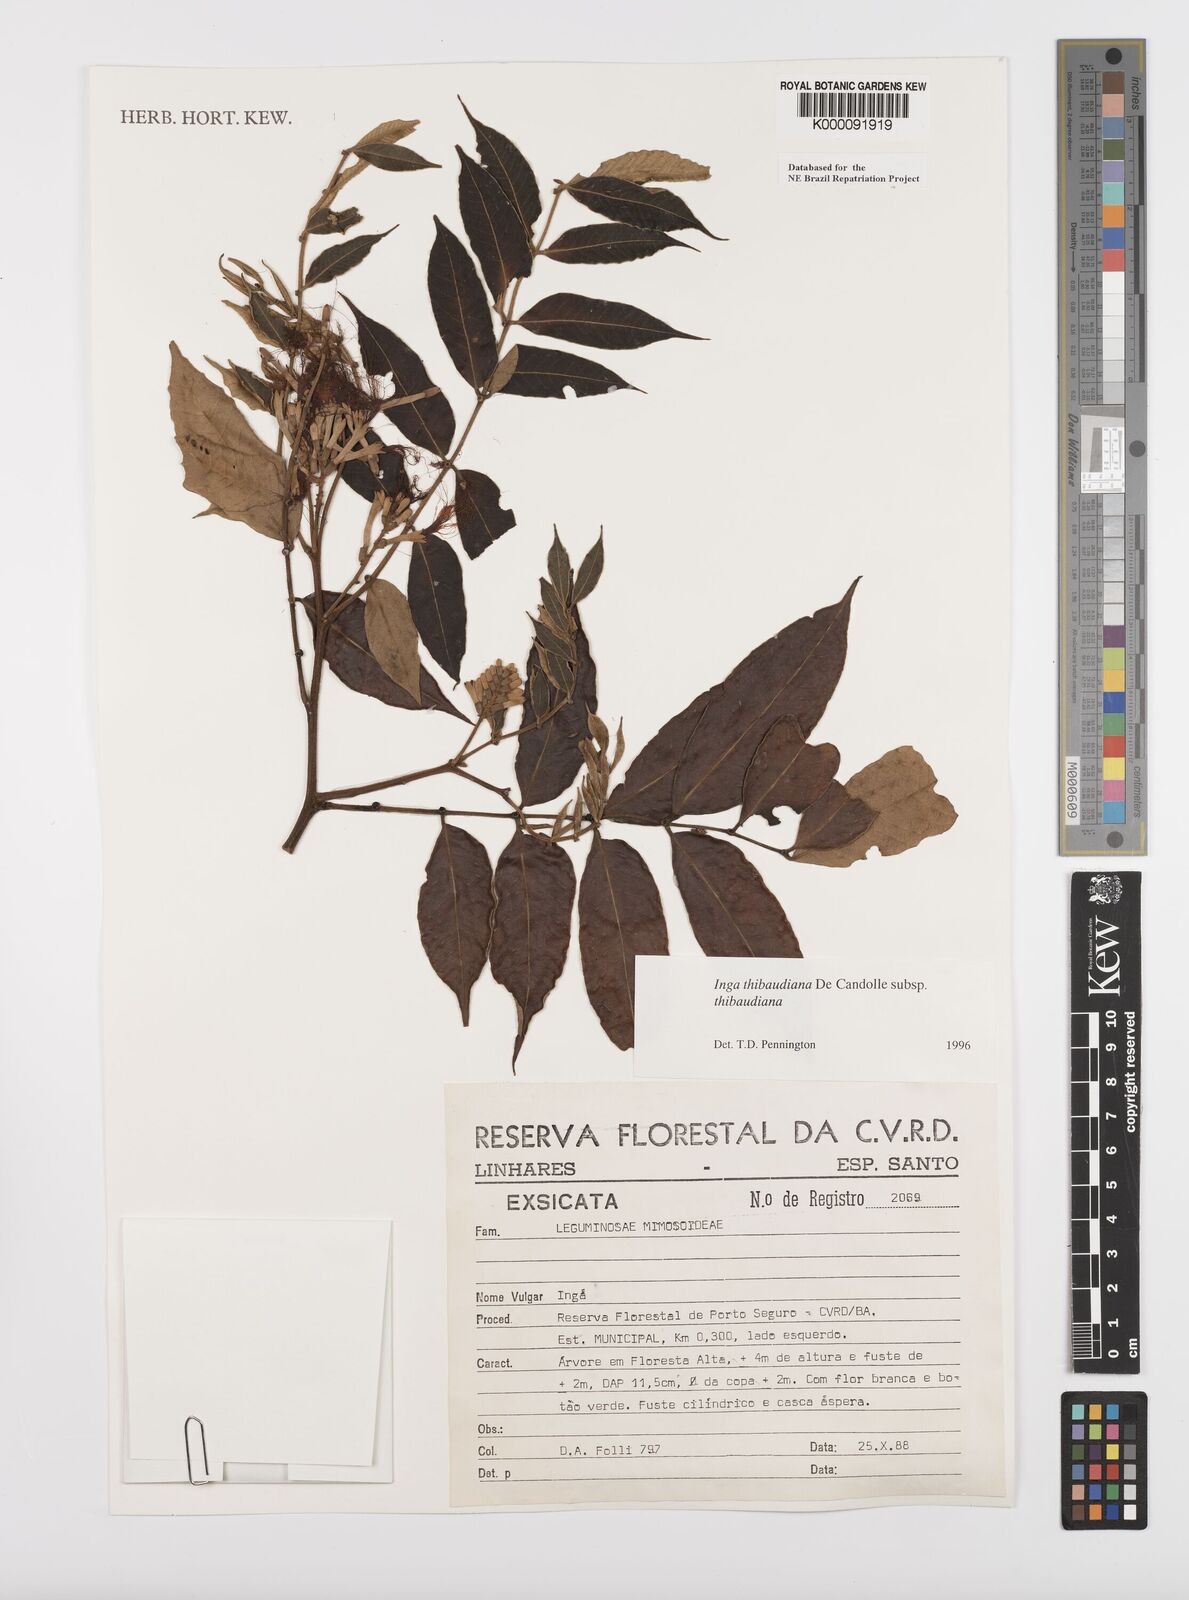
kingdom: Plantae
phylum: Tracheophyta
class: Magnoliopsida
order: Fabales
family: Fabaceae
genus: Inga
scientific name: Inga thibaudiana
